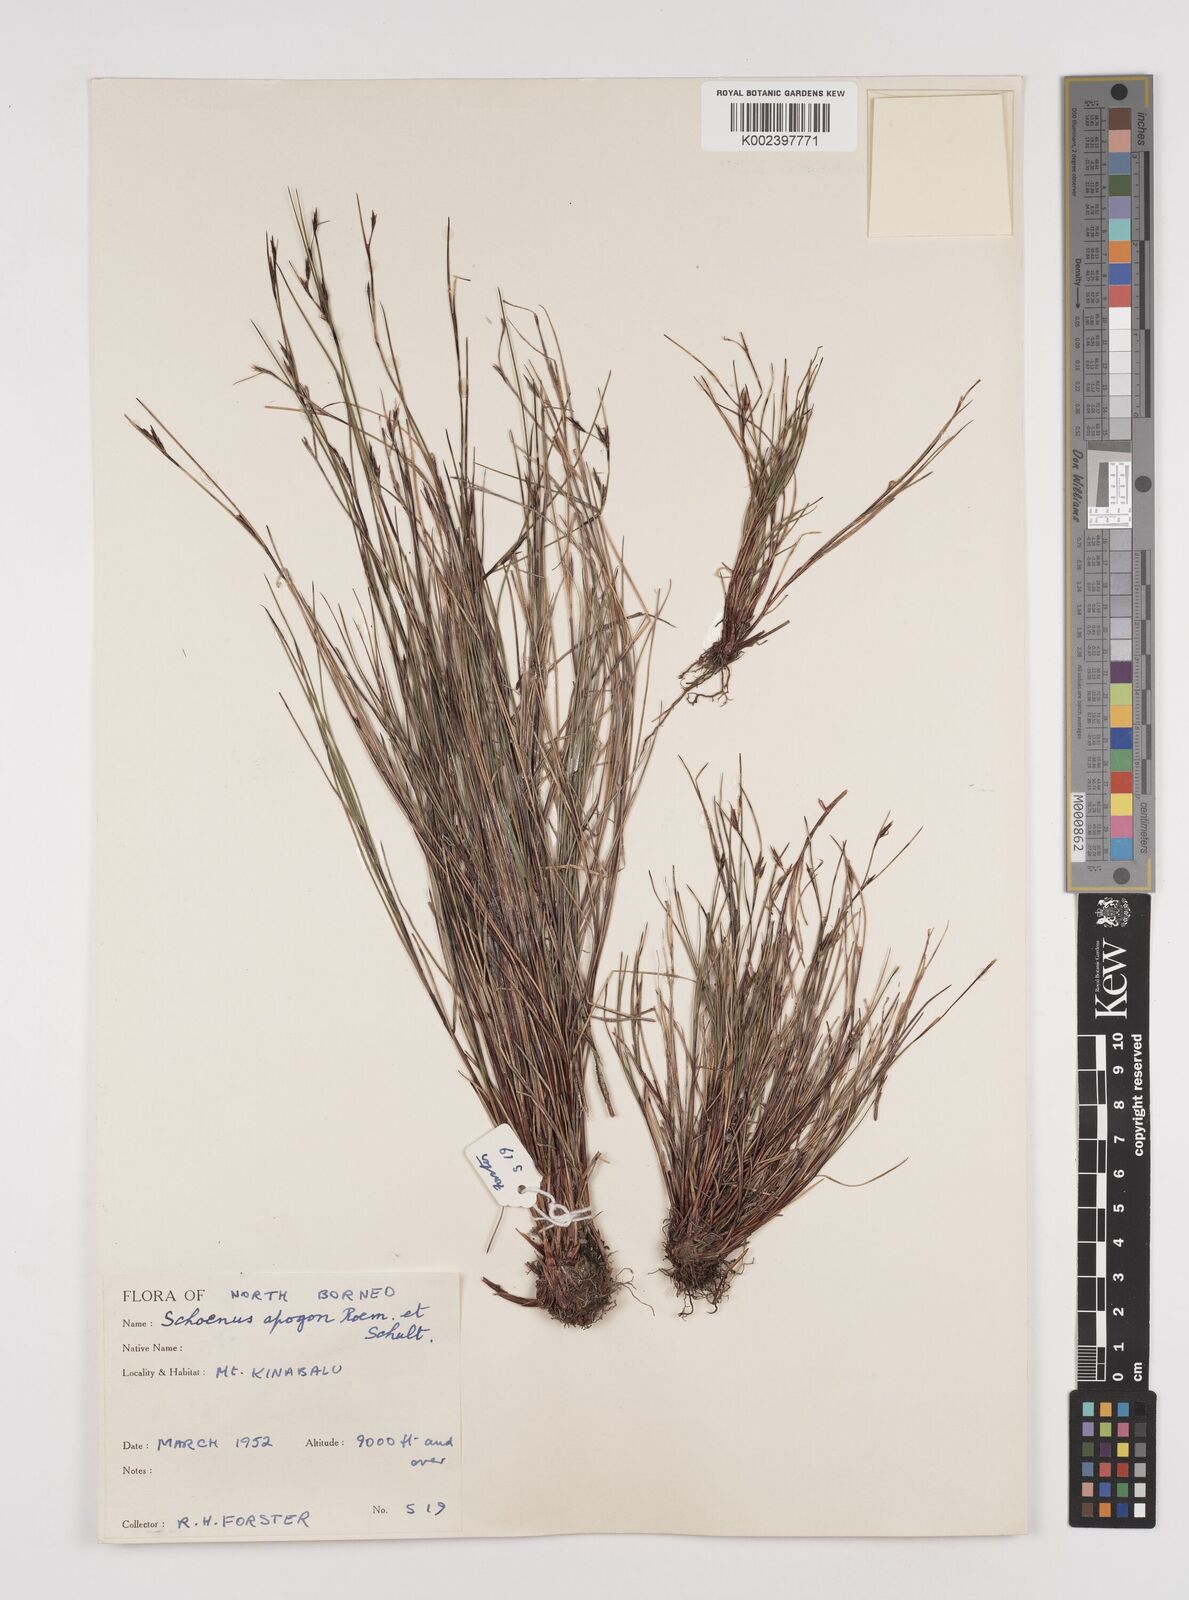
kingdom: Plantae
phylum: Tracheophyta
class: Liliopsida
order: Poales
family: Cyperaceae
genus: Schoenus
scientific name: Schoenus curvulus
